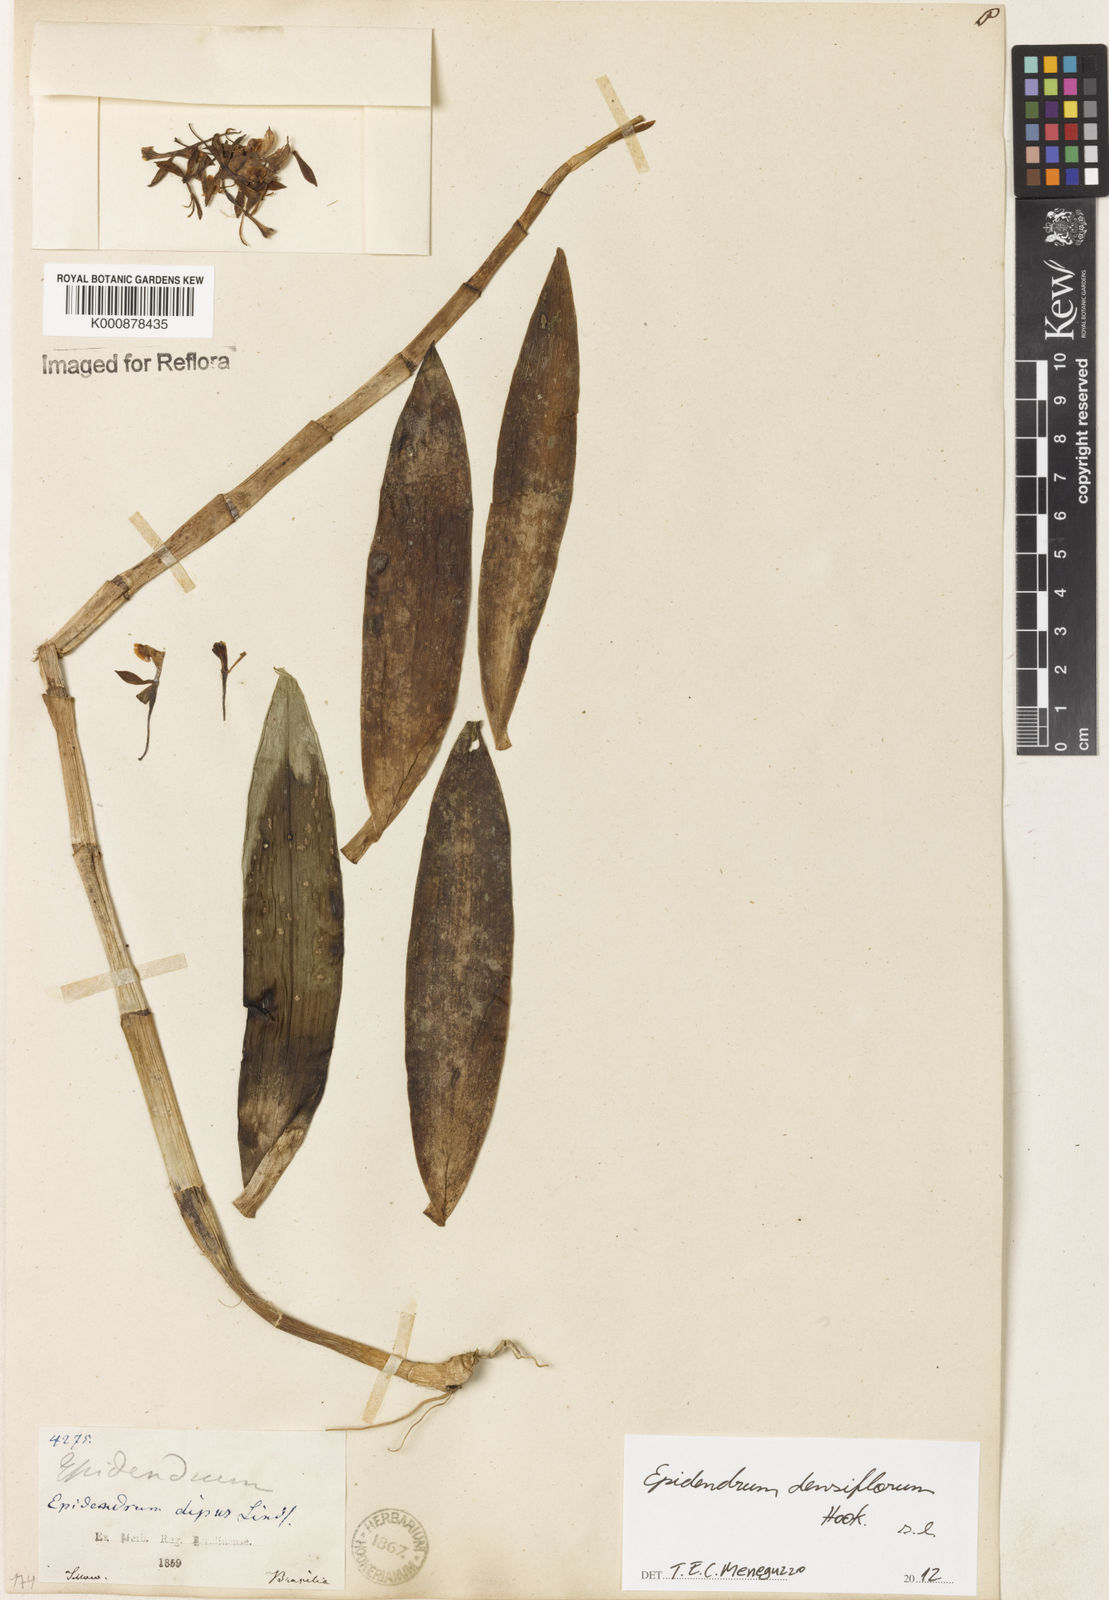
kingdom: Plantae
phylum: Tracheophyta
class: Liliopsida
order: Asparagales
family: Orchidaceae
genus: Epidendrum
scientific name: Epidendrum densiflorum
